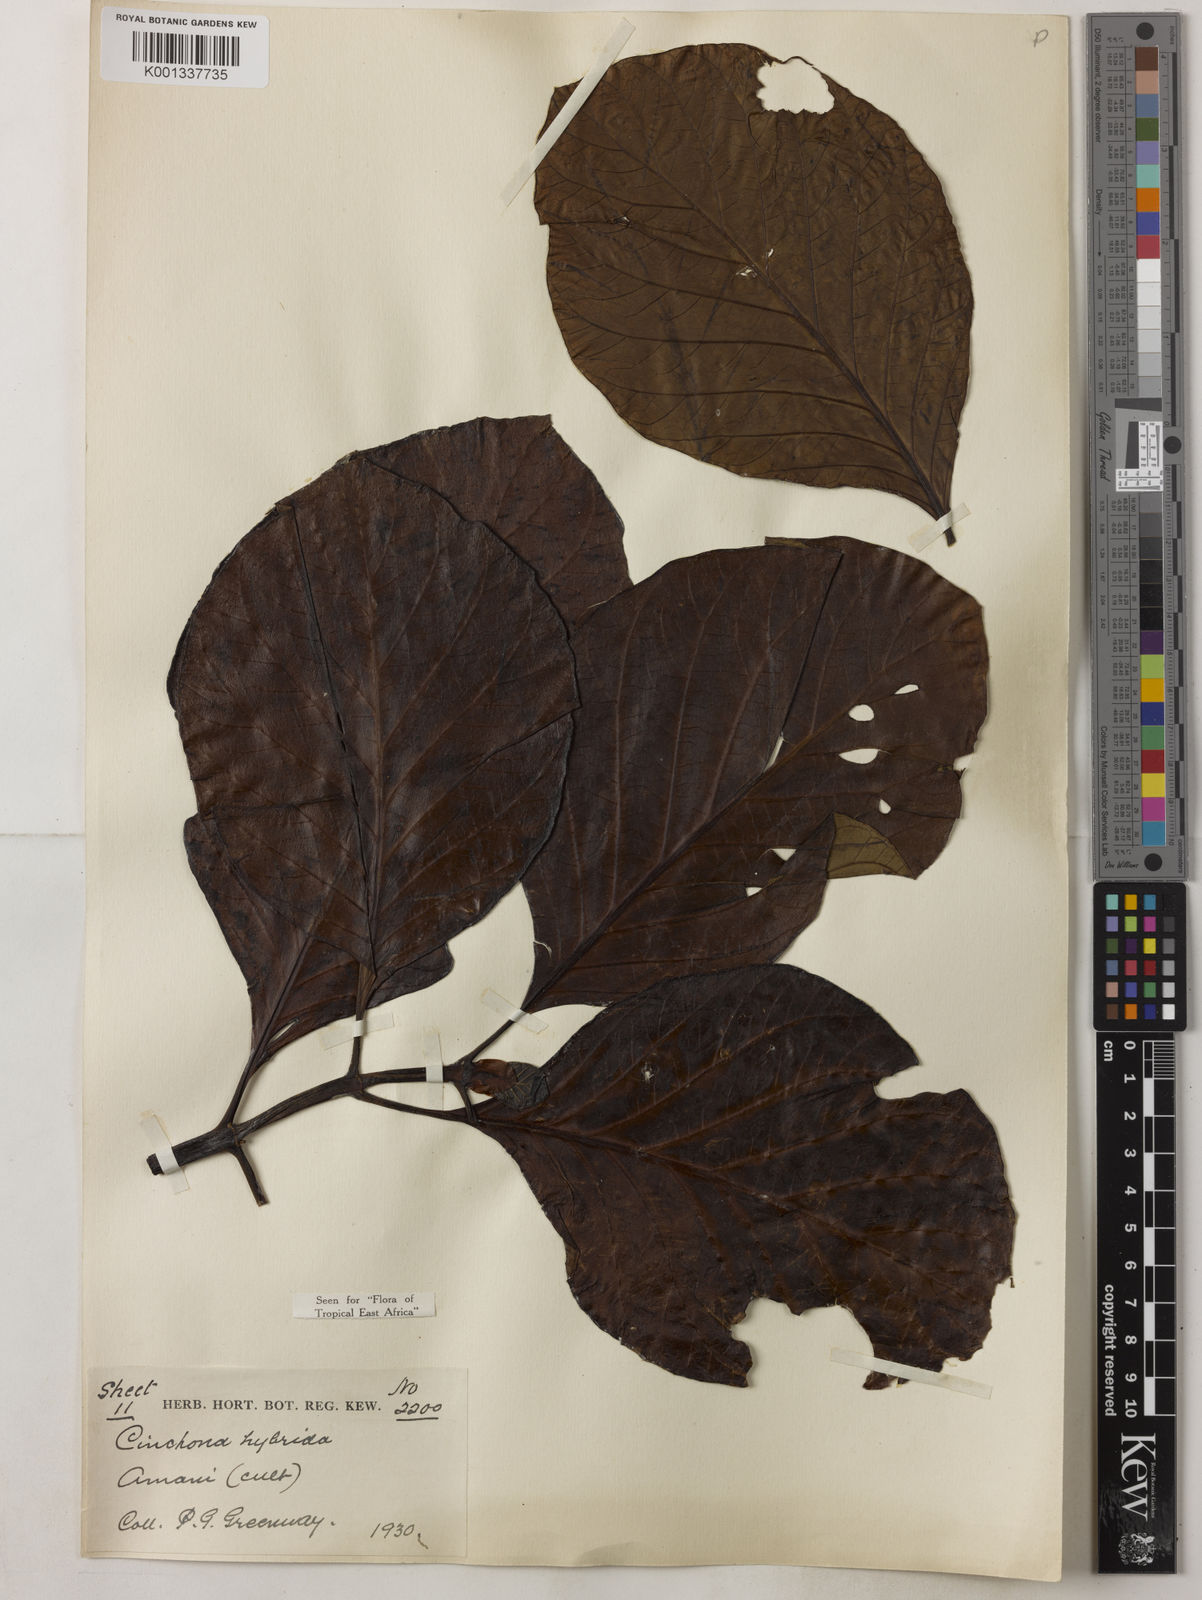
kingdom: Plantae
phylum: Tracheophyta
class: Magnoliopsida
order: Gentianales
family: Rubiaceae
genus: Cinchona
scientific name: Cinchona
